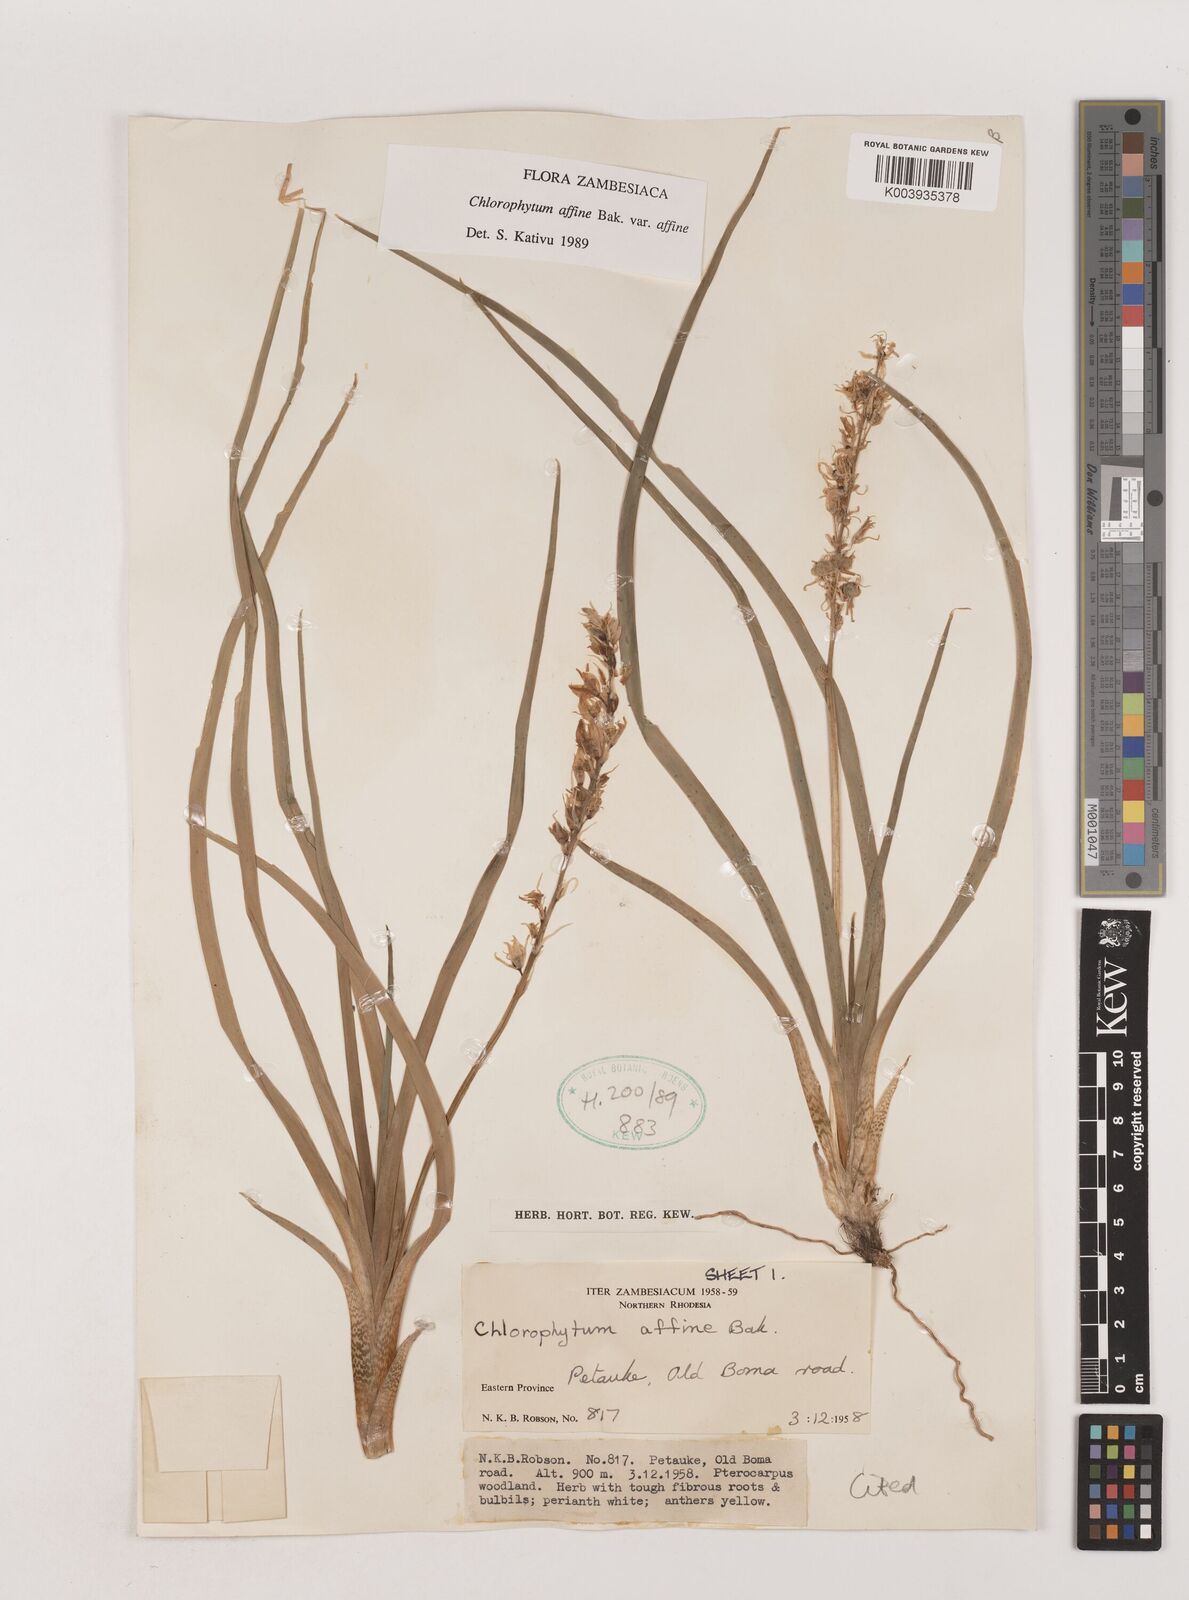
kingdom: Plantae
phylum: Tracheophyta
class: Liliopsida
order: Asparagales
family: Asparagaceae
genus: Chlorophytum
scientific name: Chlorophytum affine
